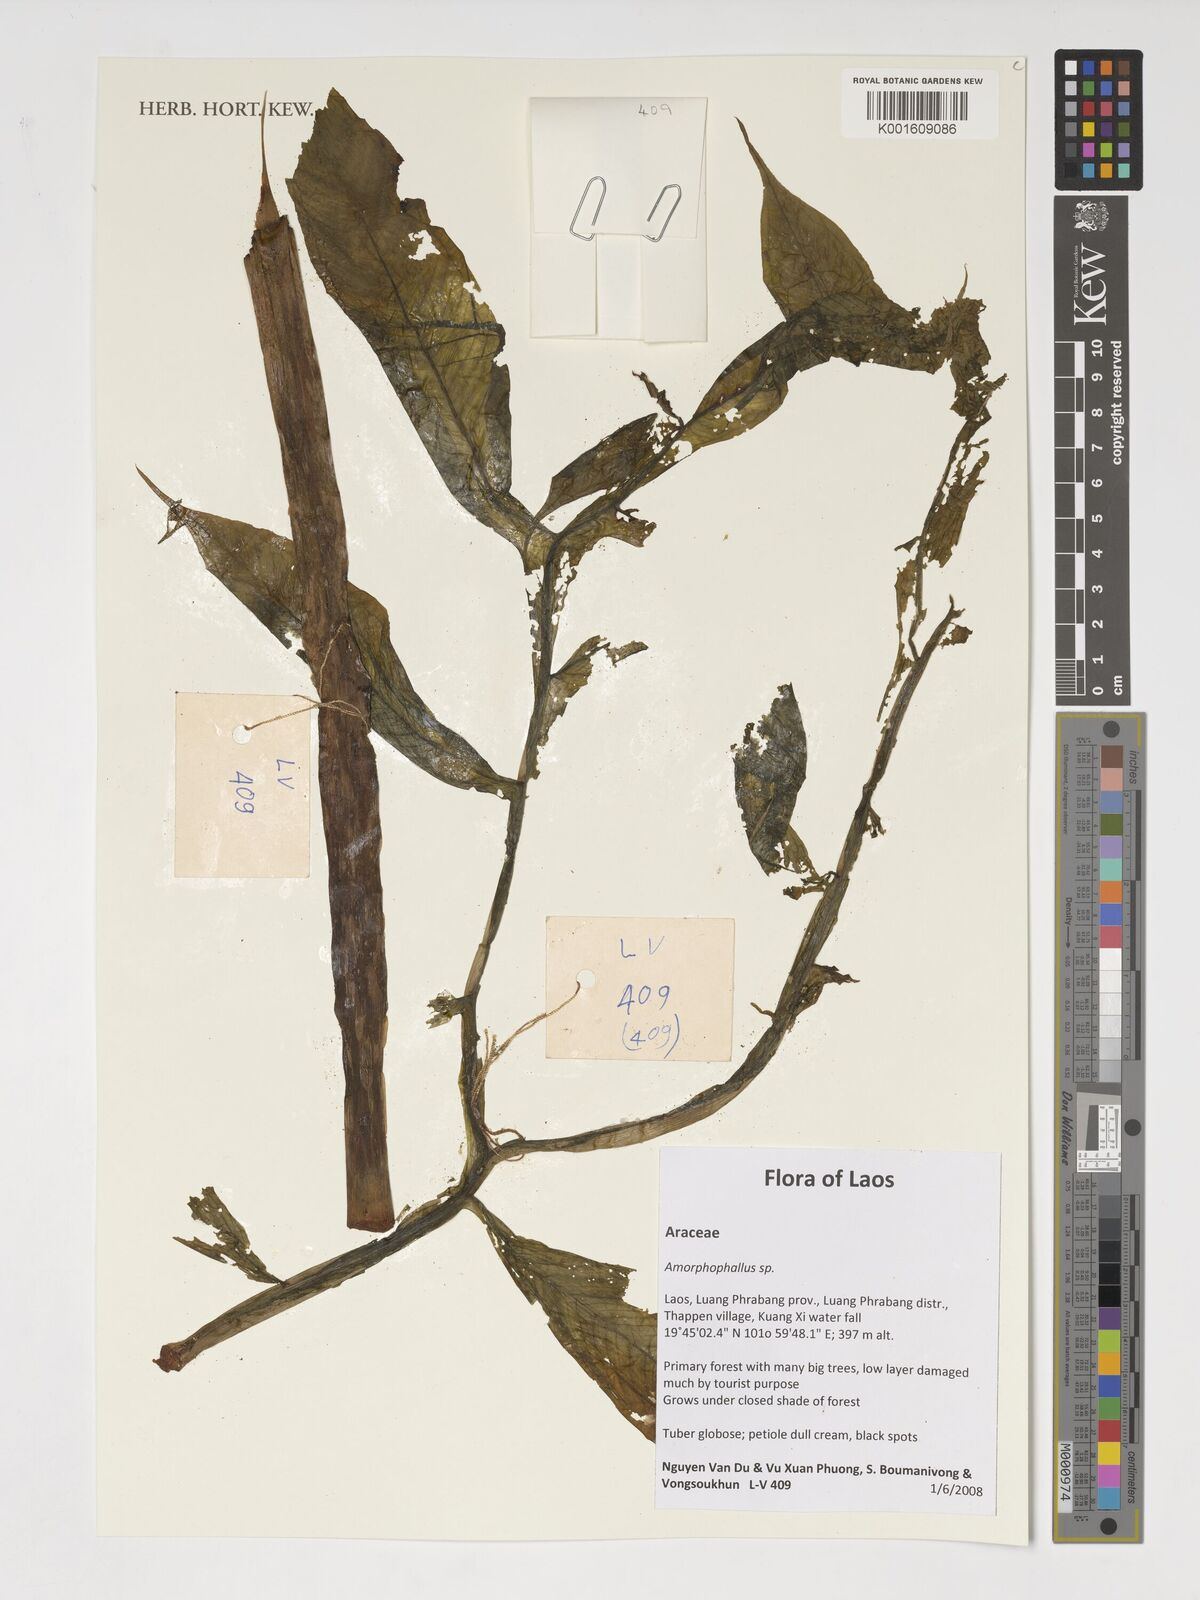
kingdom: Plantae
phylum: Tracheophyta
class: Liliopsida
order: Alismatales
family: Araceae
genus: Amorphophallus
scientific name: Amorphophallus
